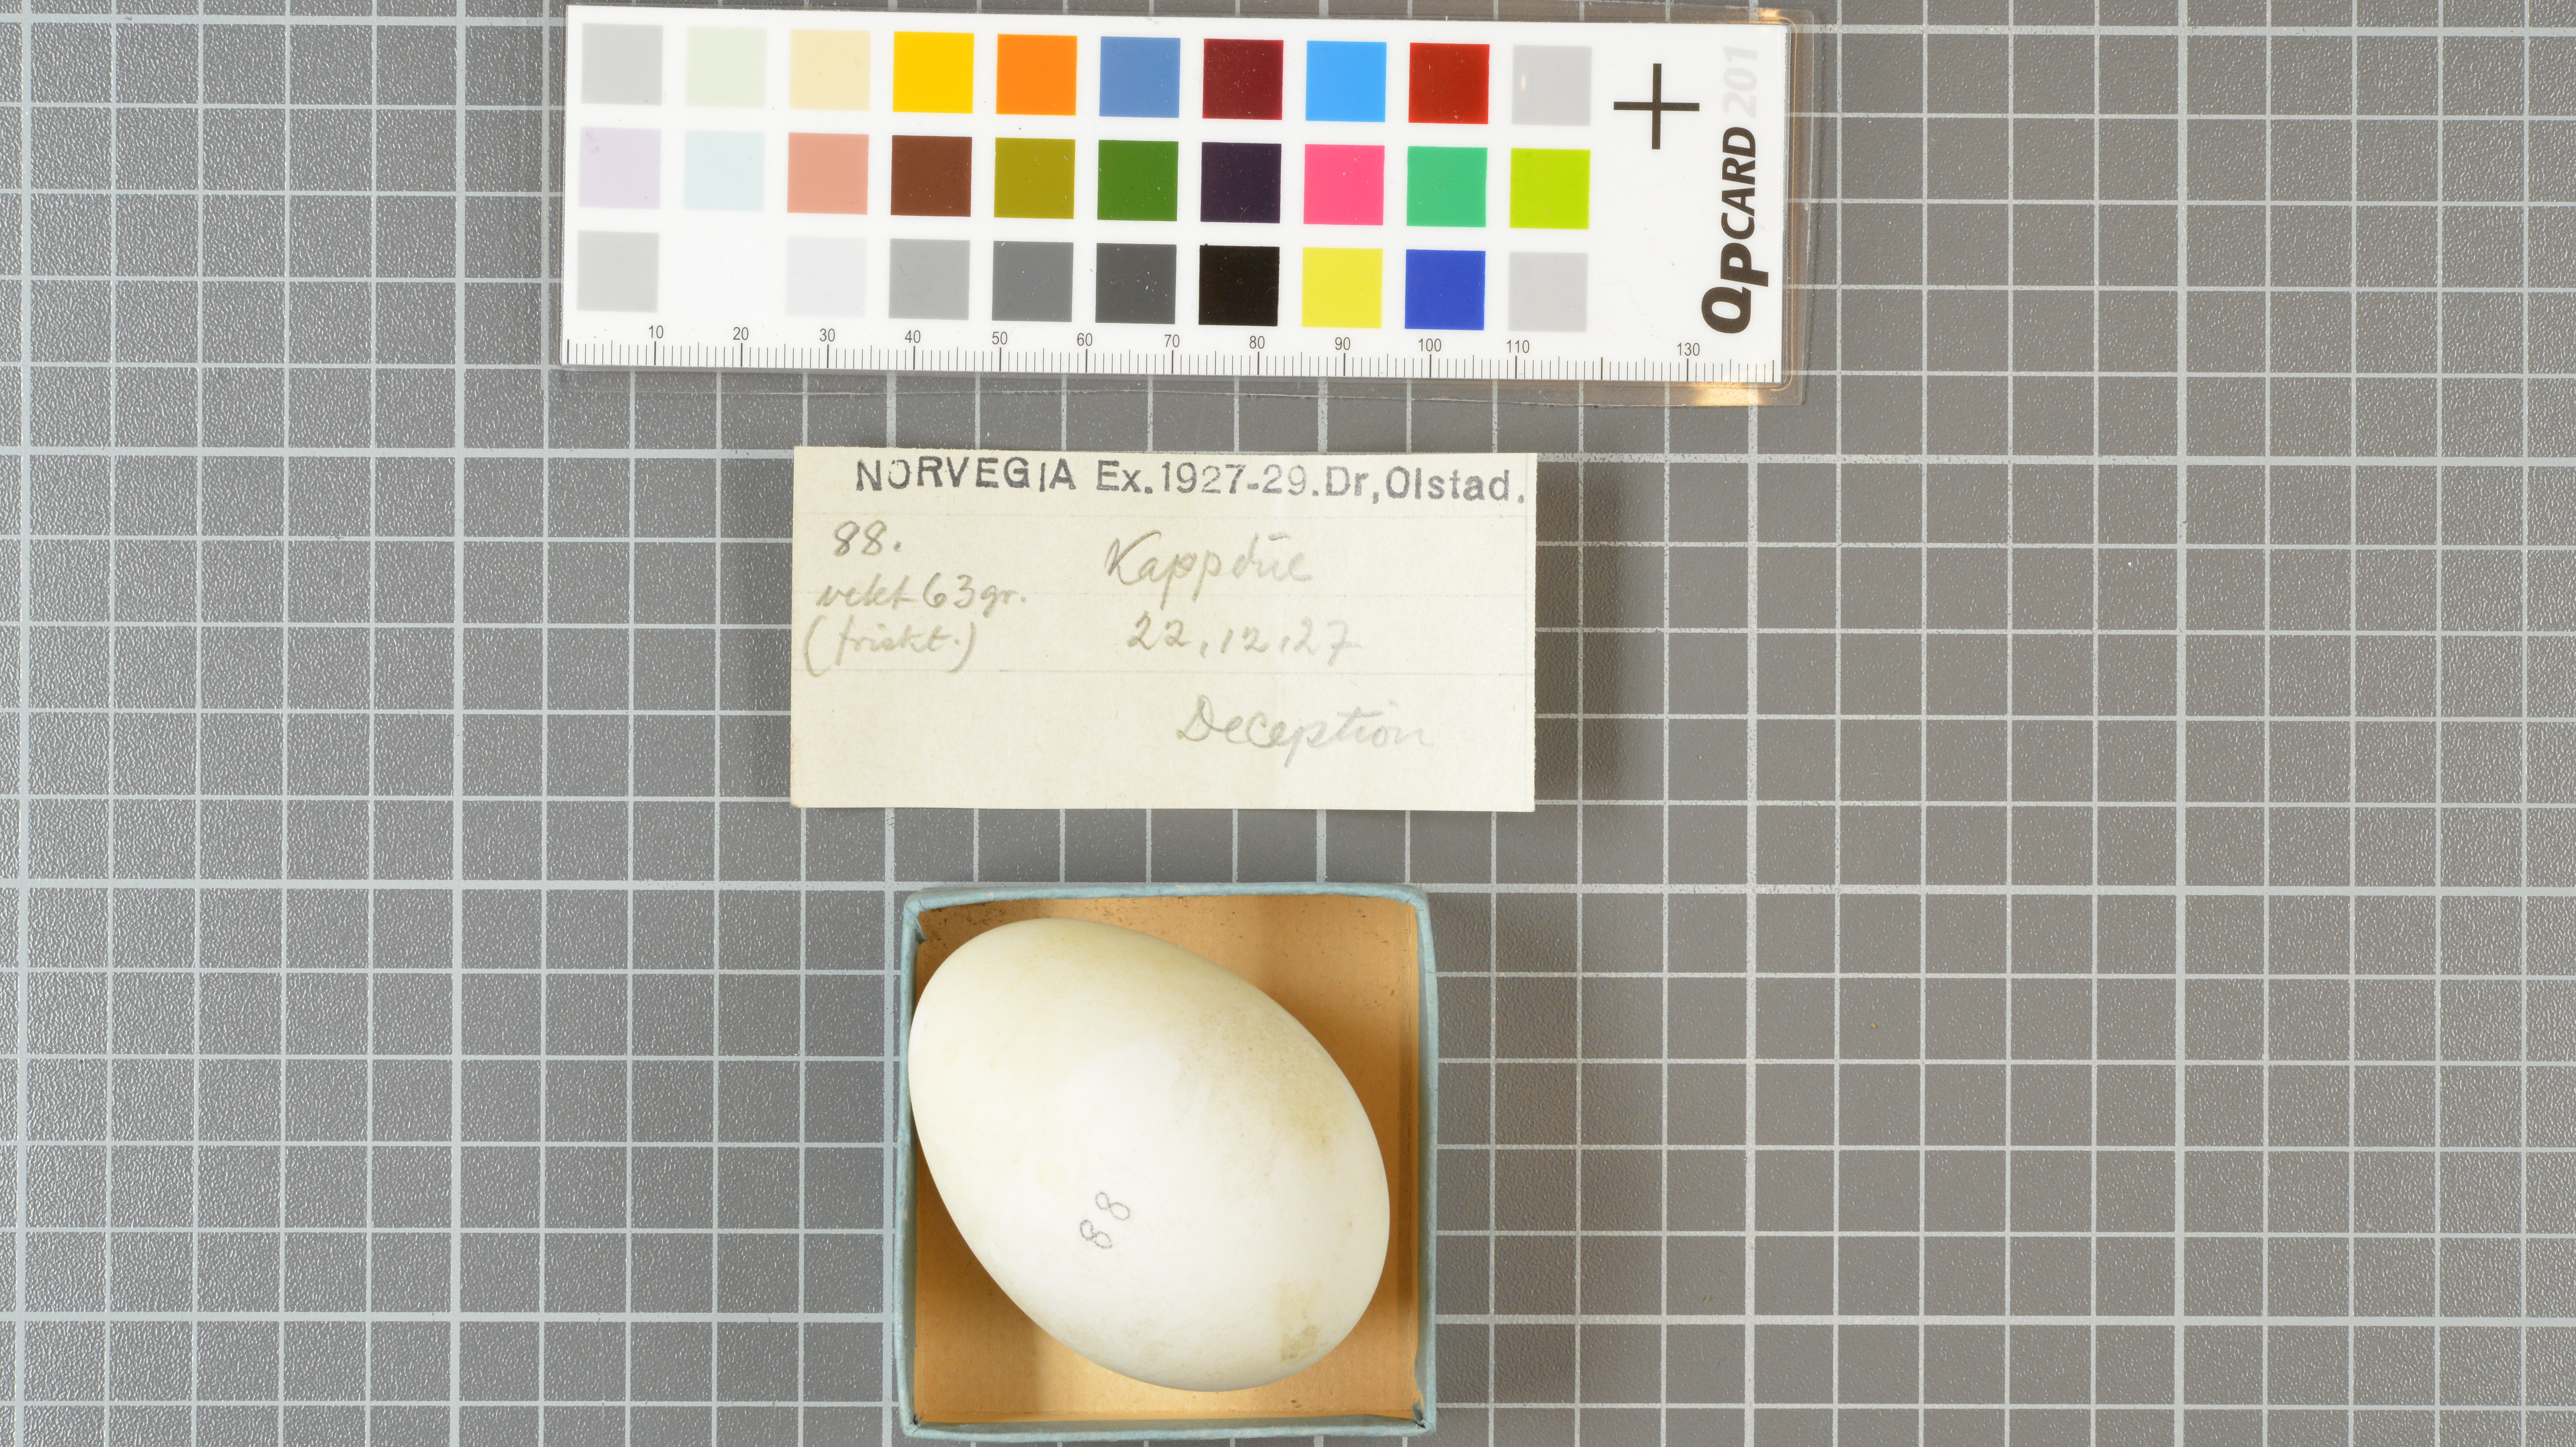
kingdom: Animalia
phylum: Chordata
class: Aves
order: Procellariiformes
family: Procellariidae
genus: Daption
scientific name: Daption capense
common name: Cape petrel
